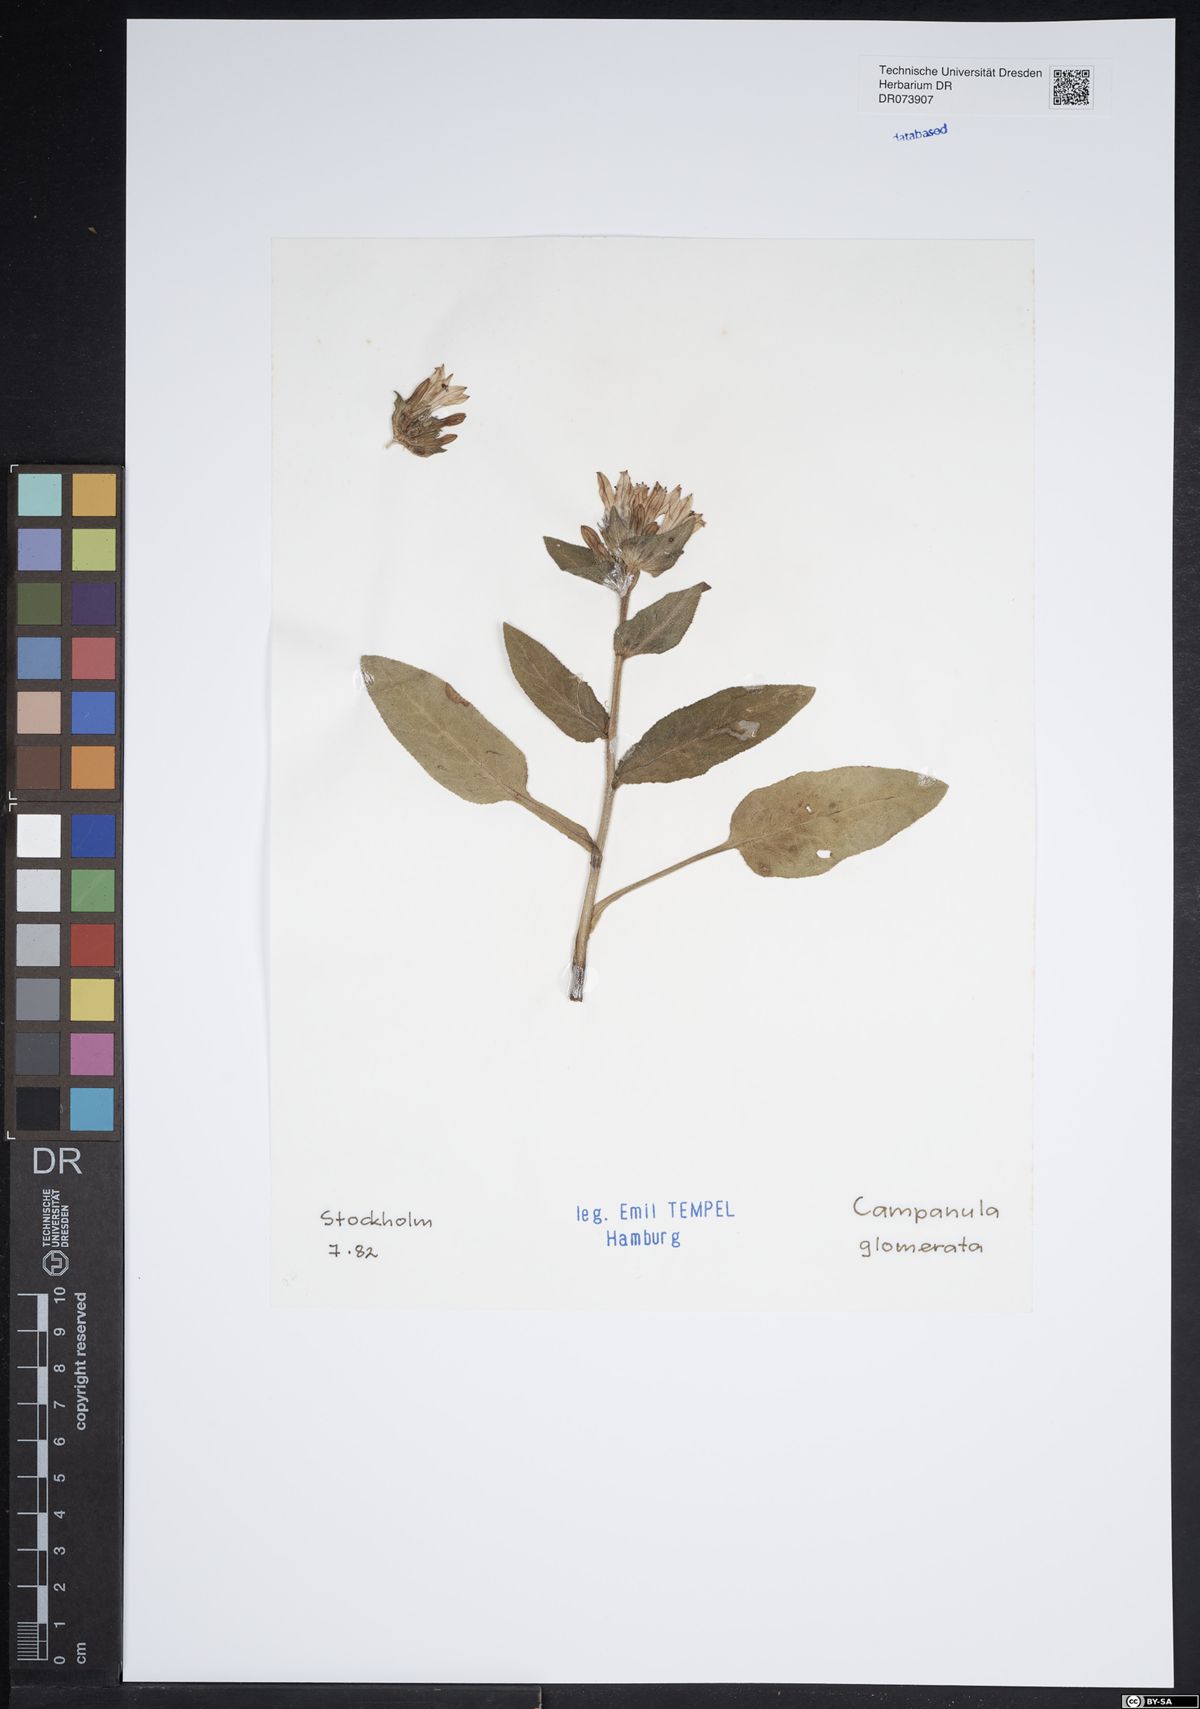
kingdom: Plantae
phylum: Tracheophyta
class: Magnoliopsida
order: Asterales
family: Campanulaceae
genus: Campanula
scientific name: Campanula glomerata
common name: Clustered bellflower
